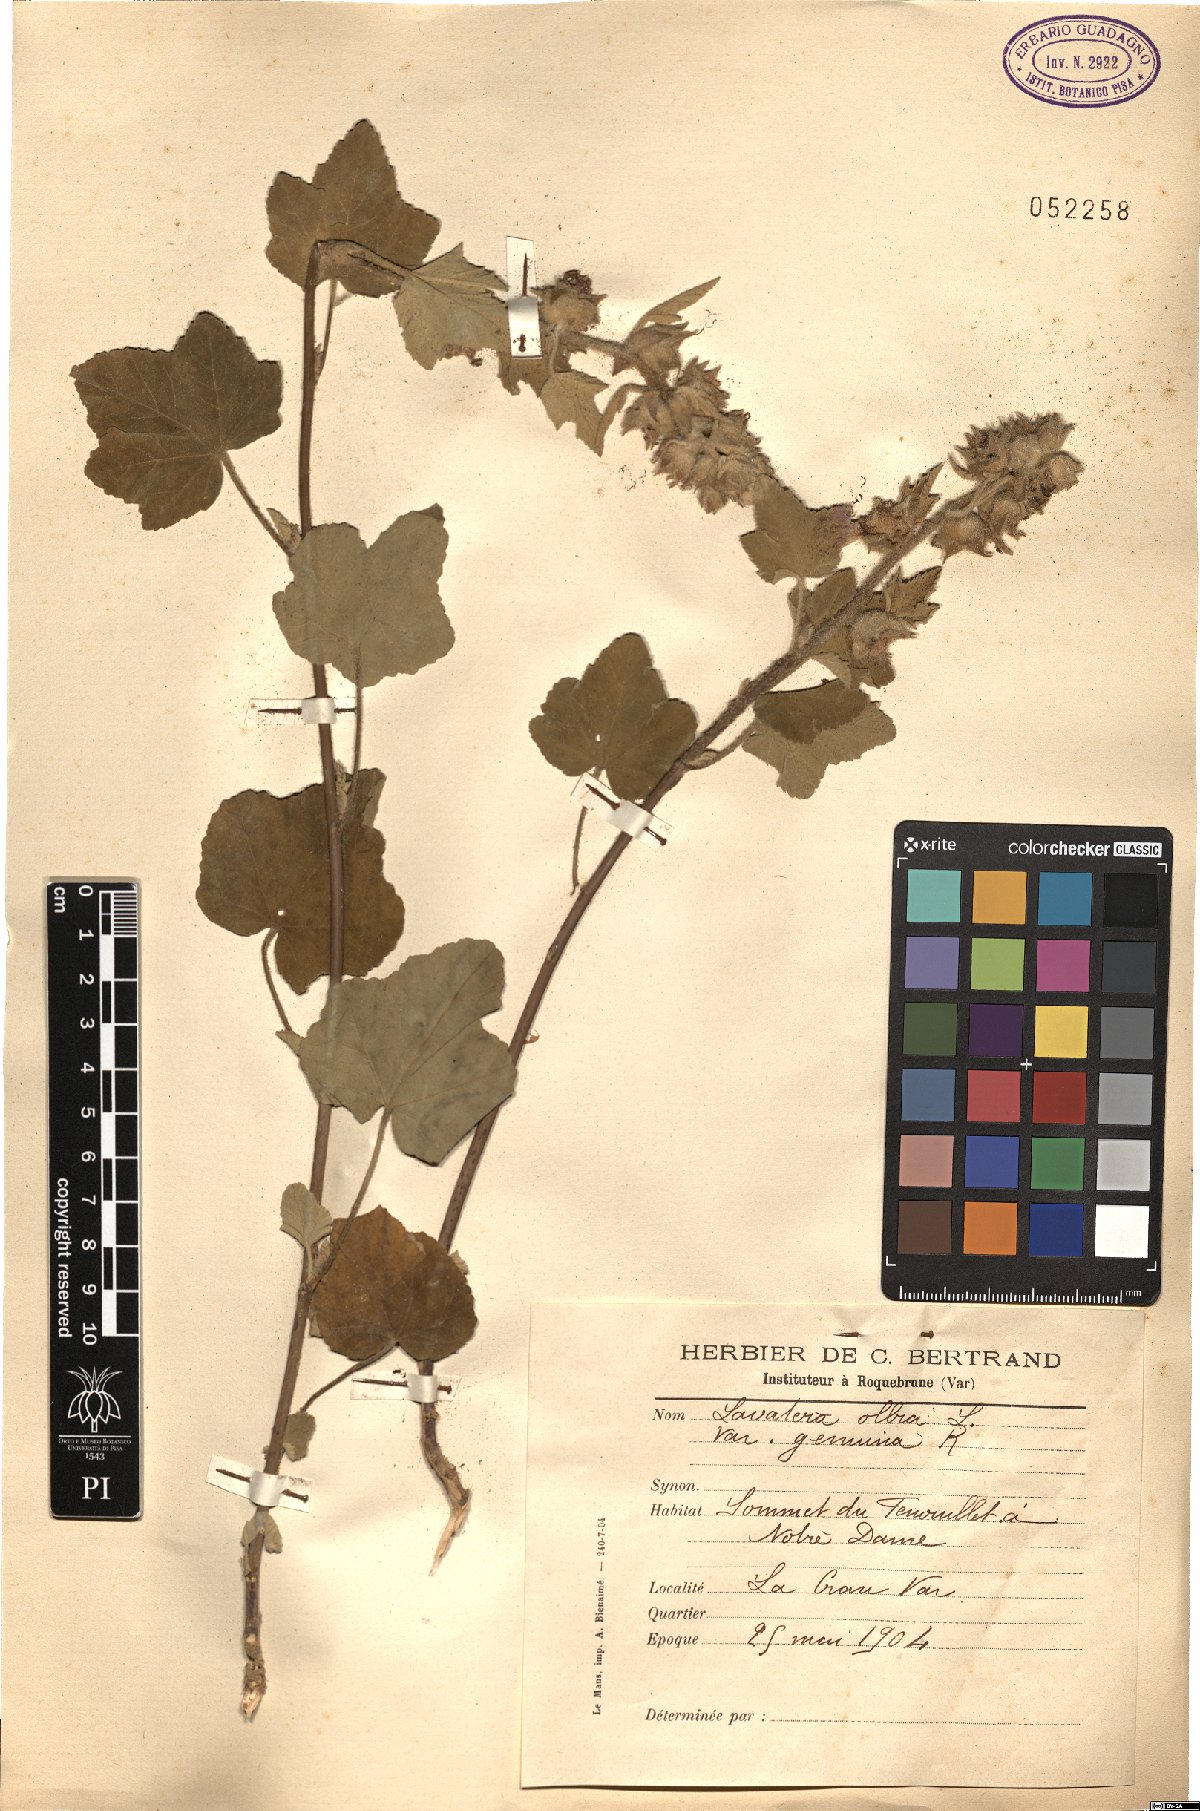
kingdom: Plantae
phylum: Tracheophyta
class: Magnoliopsida
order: Malvales
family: Malvaceae
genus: Malva
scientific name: Malva olbia
